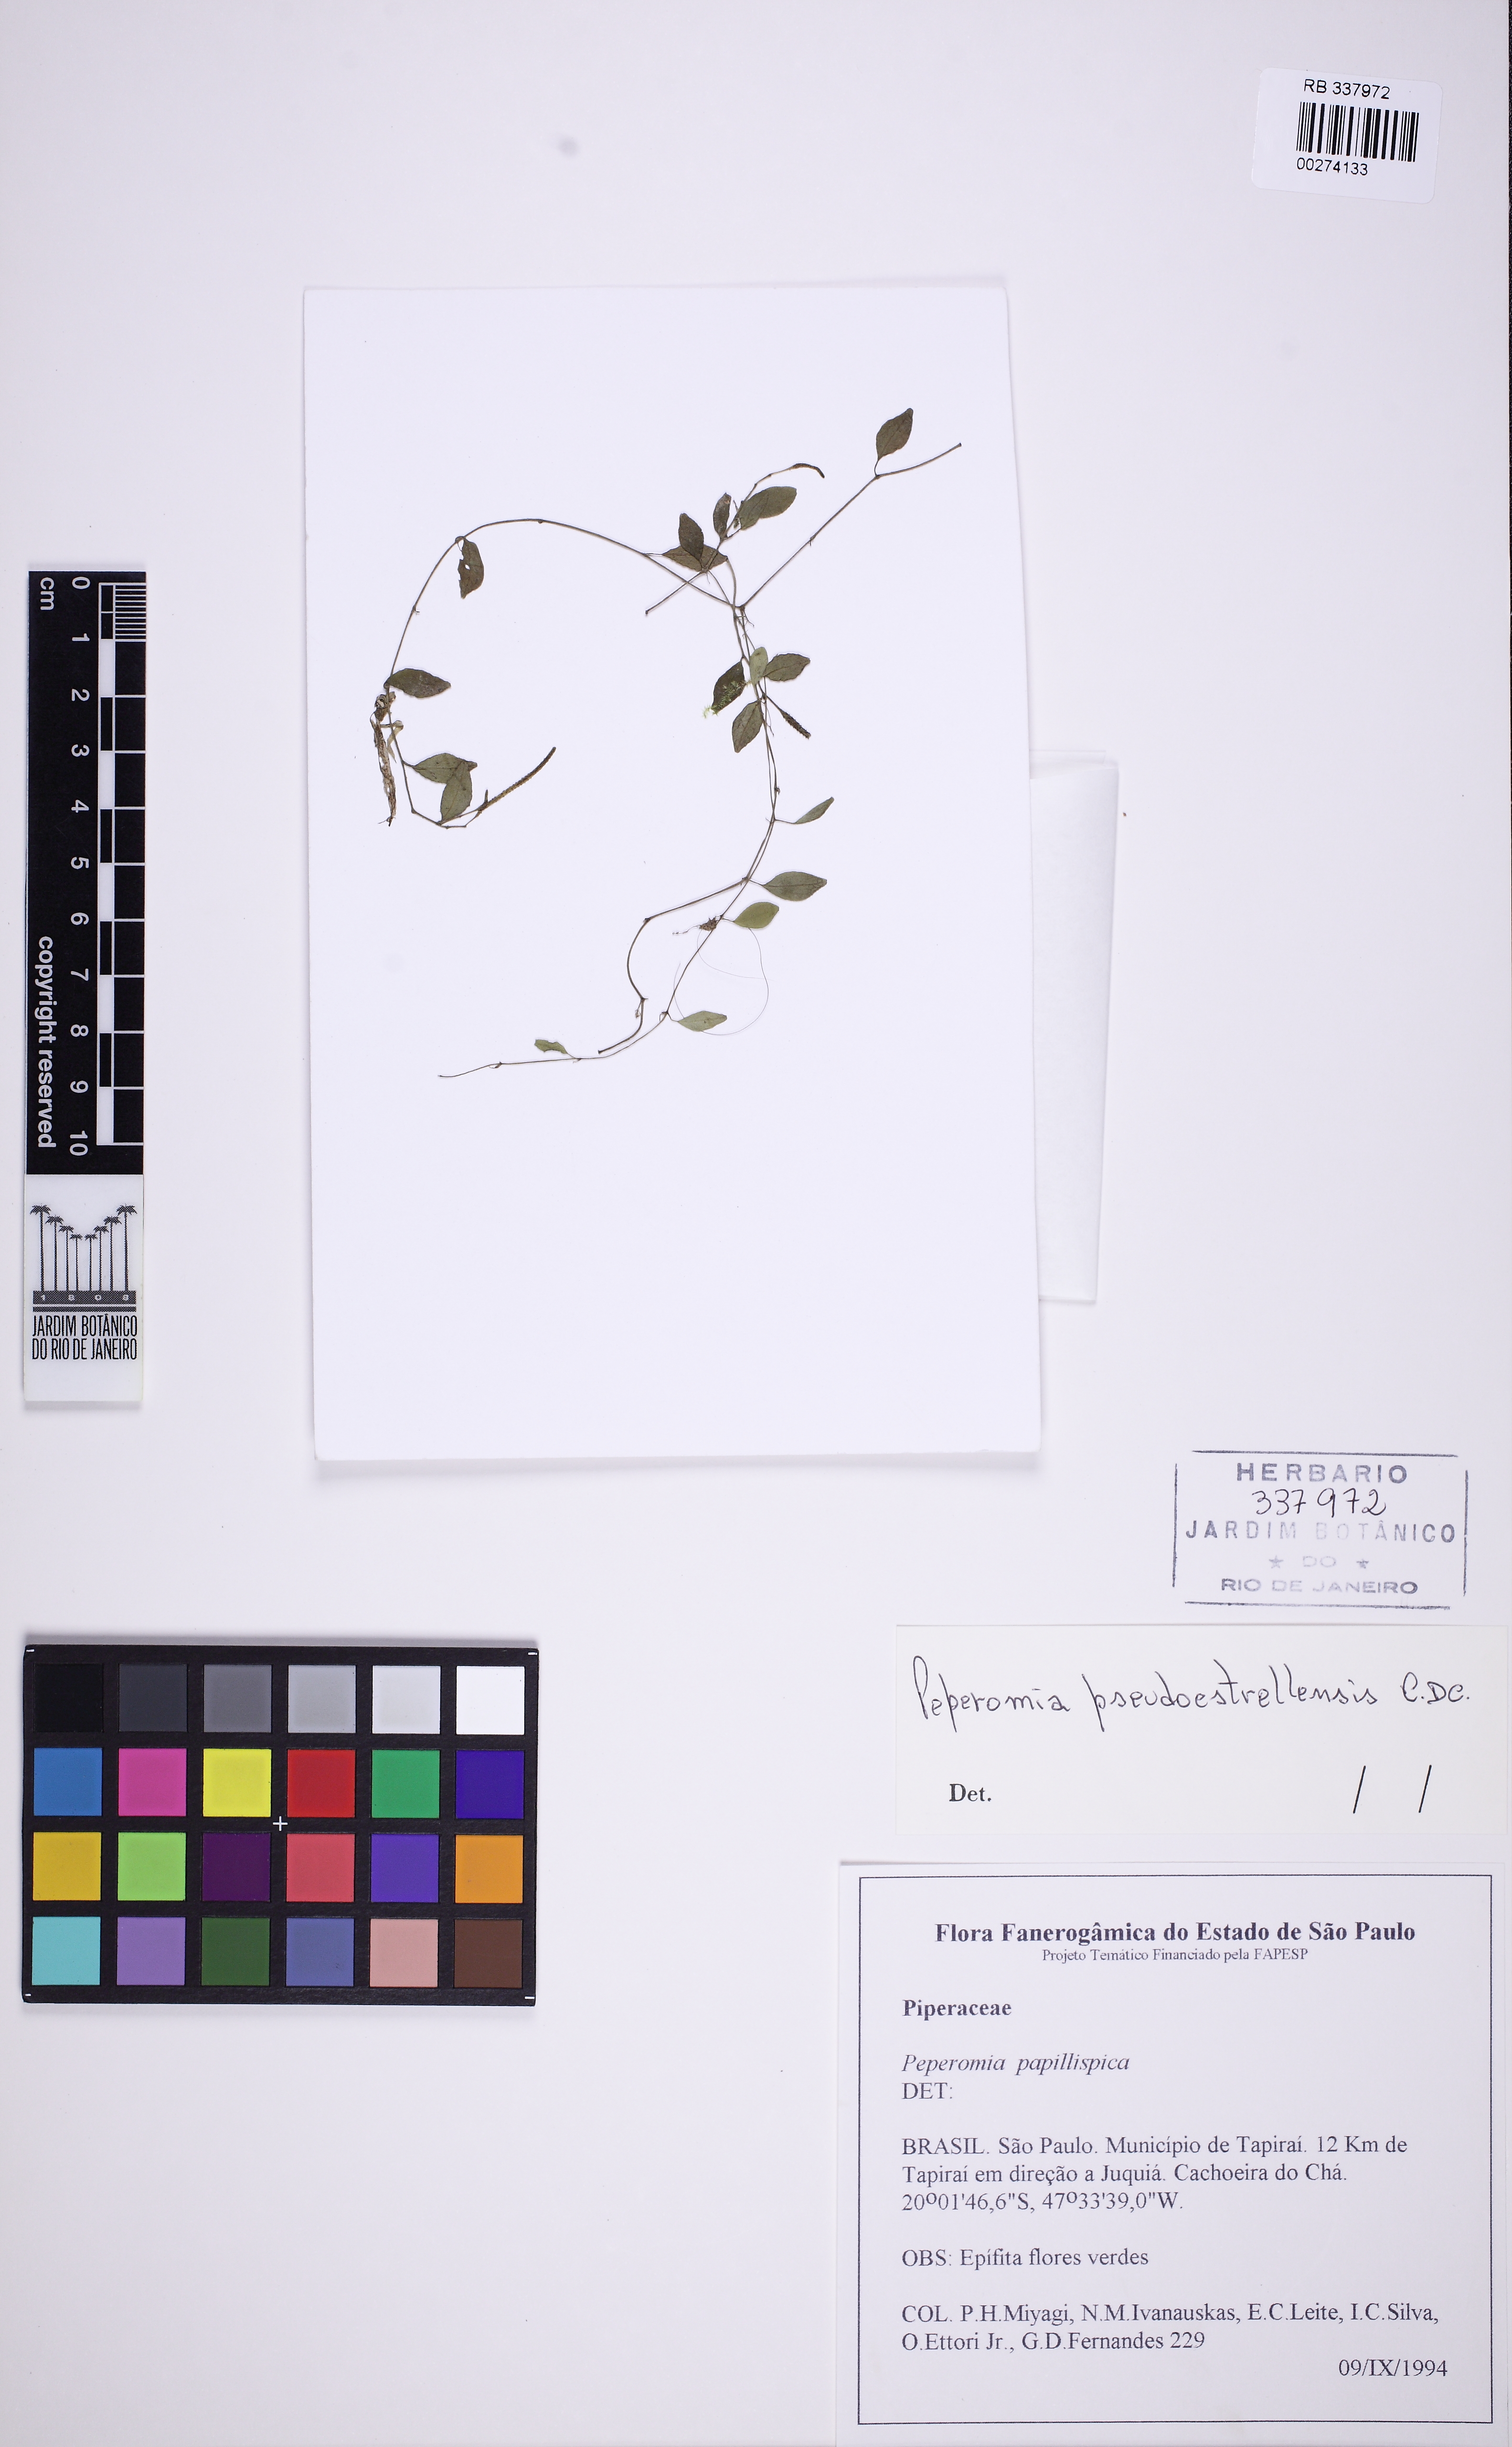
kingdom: Plantae
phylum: Tracheophyta
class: Magnoliopsida
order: Piperales
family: Piperaceae
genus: Peperomia
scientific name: Peperomia pseudoestrellensis
